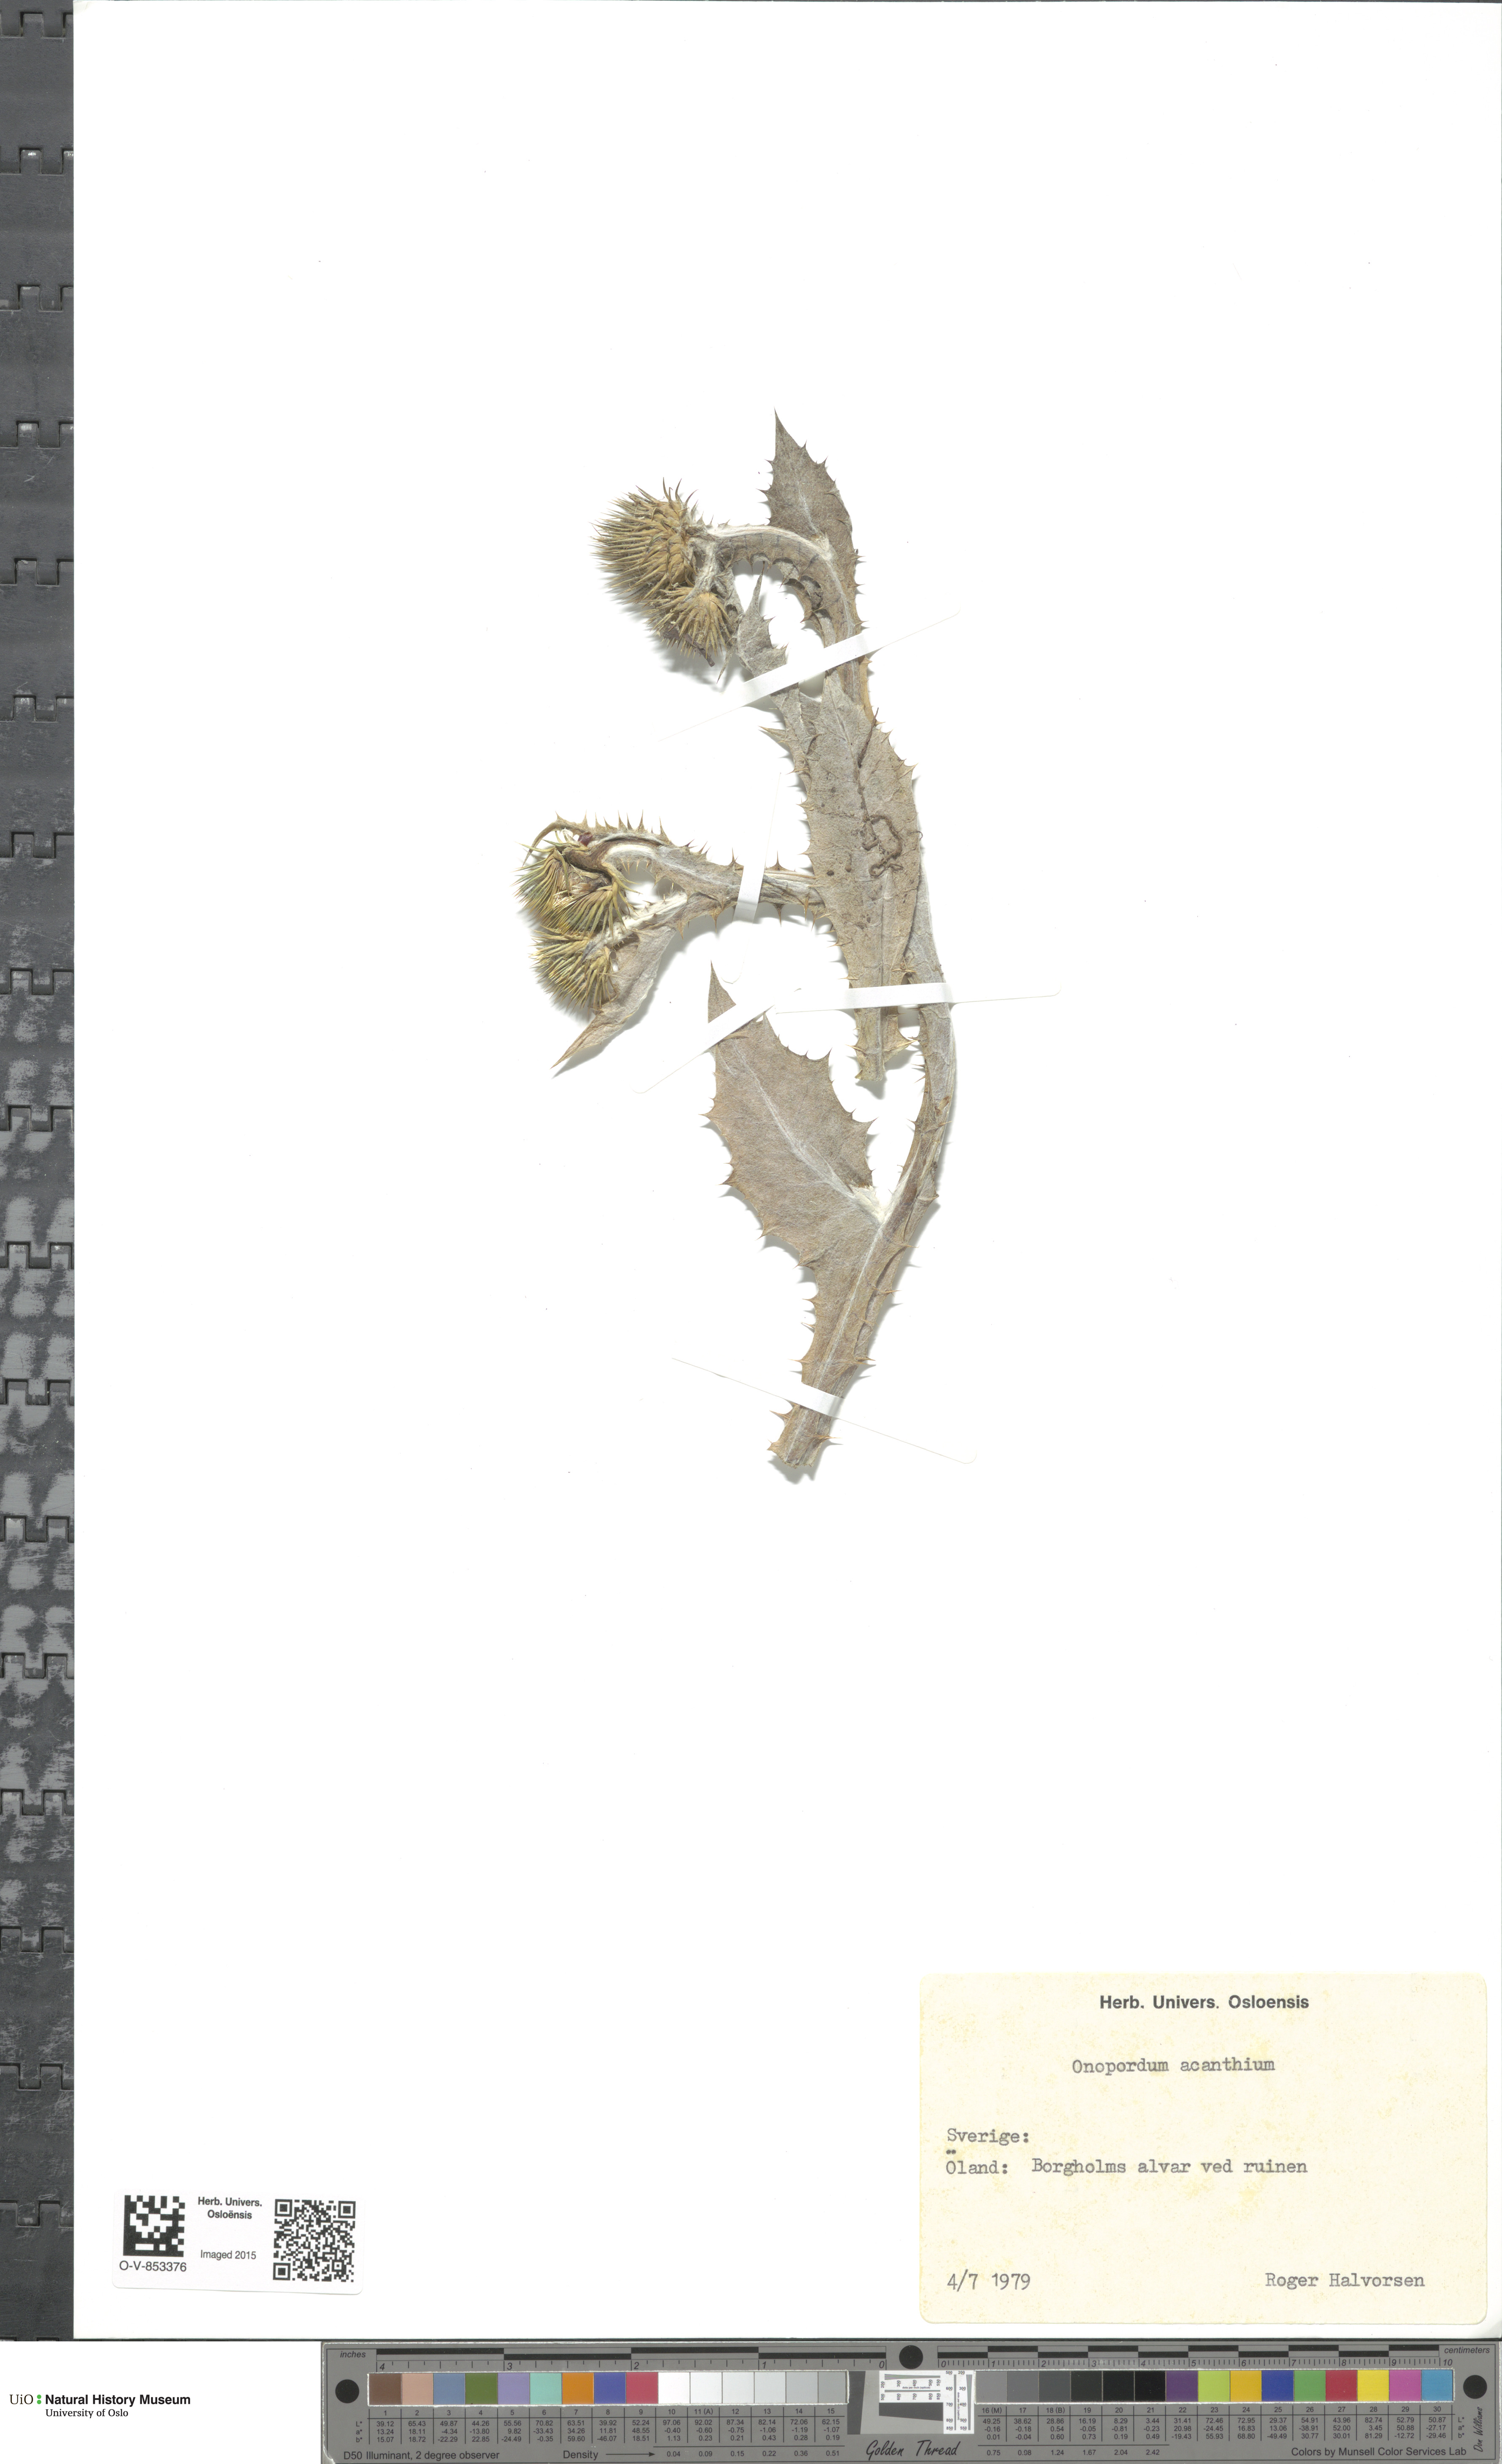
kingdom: Plantae
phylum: Tracheophyta
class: Magnoliopsida
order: Asterales
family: Asteraceae
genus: Onopordum
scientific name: Onopordum acanthium
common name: Scotch thistle
